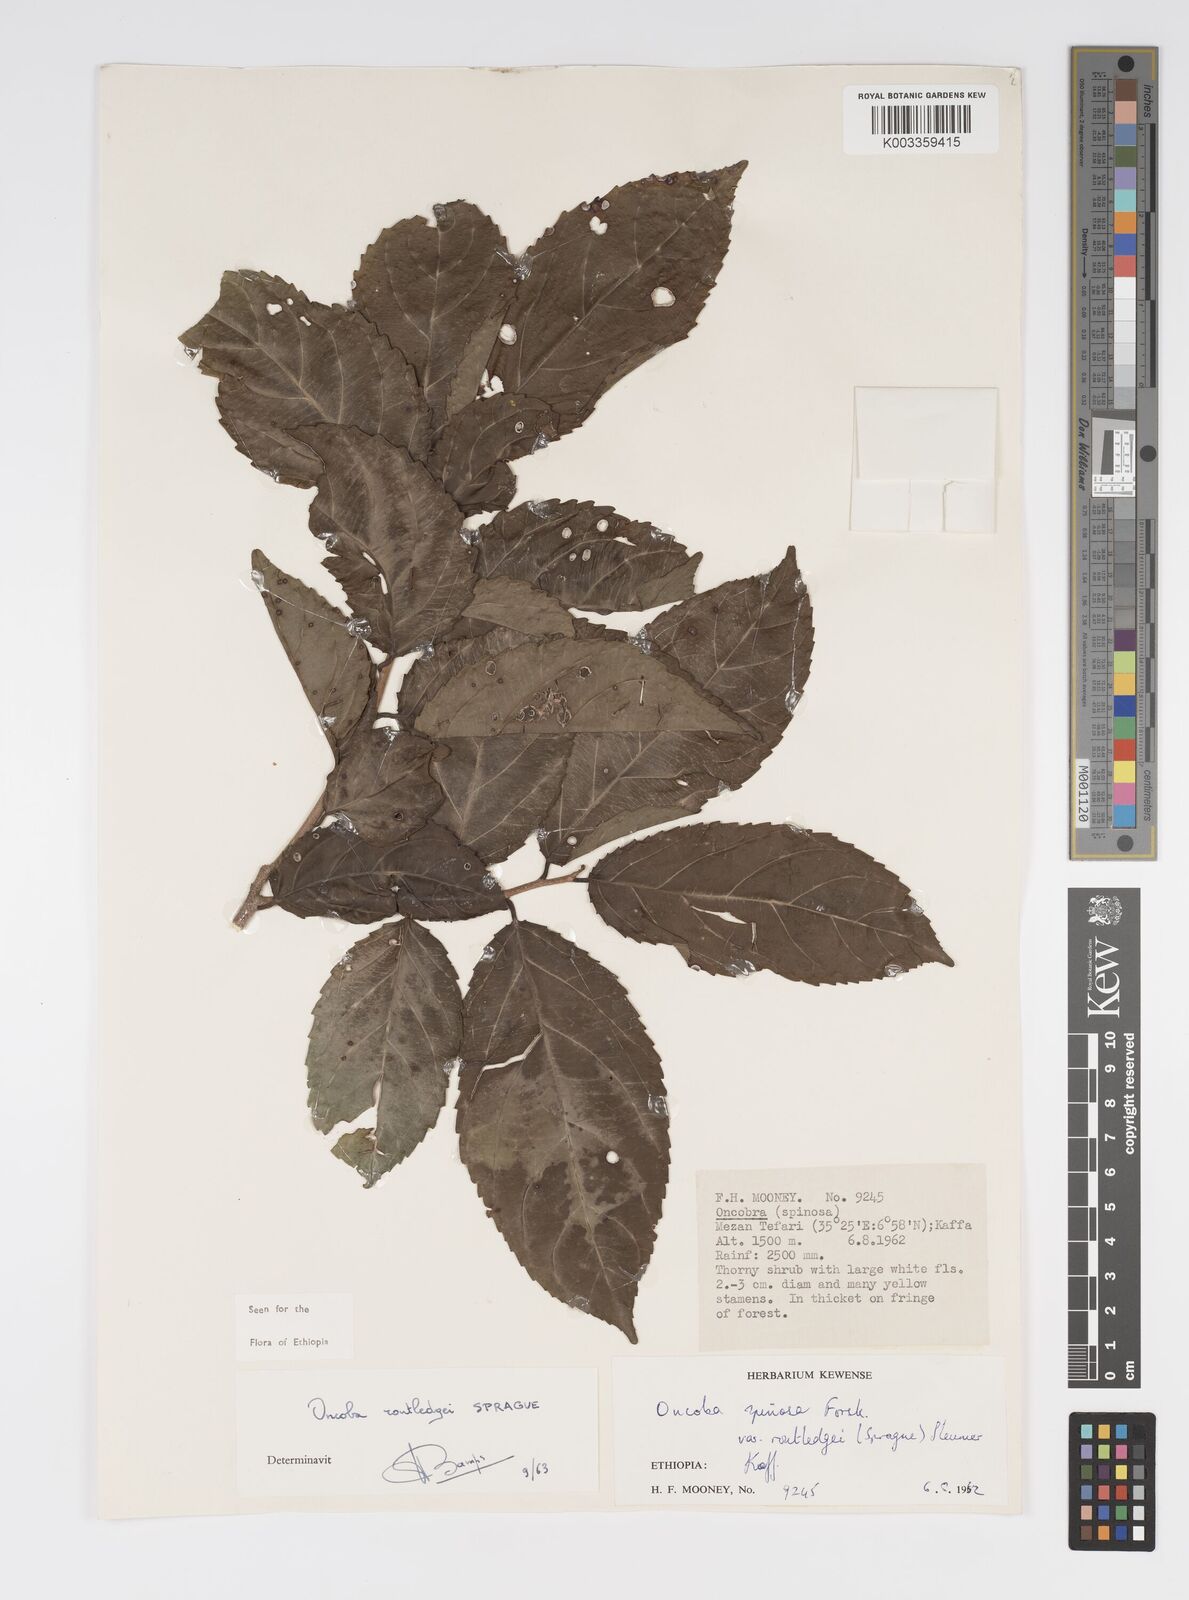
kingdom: Plantae
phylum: Tracheophyta
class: Magnoliopsida
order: Malpighiales
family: Salicaceae
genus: Oncoba
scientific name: Oncoba routledgei
